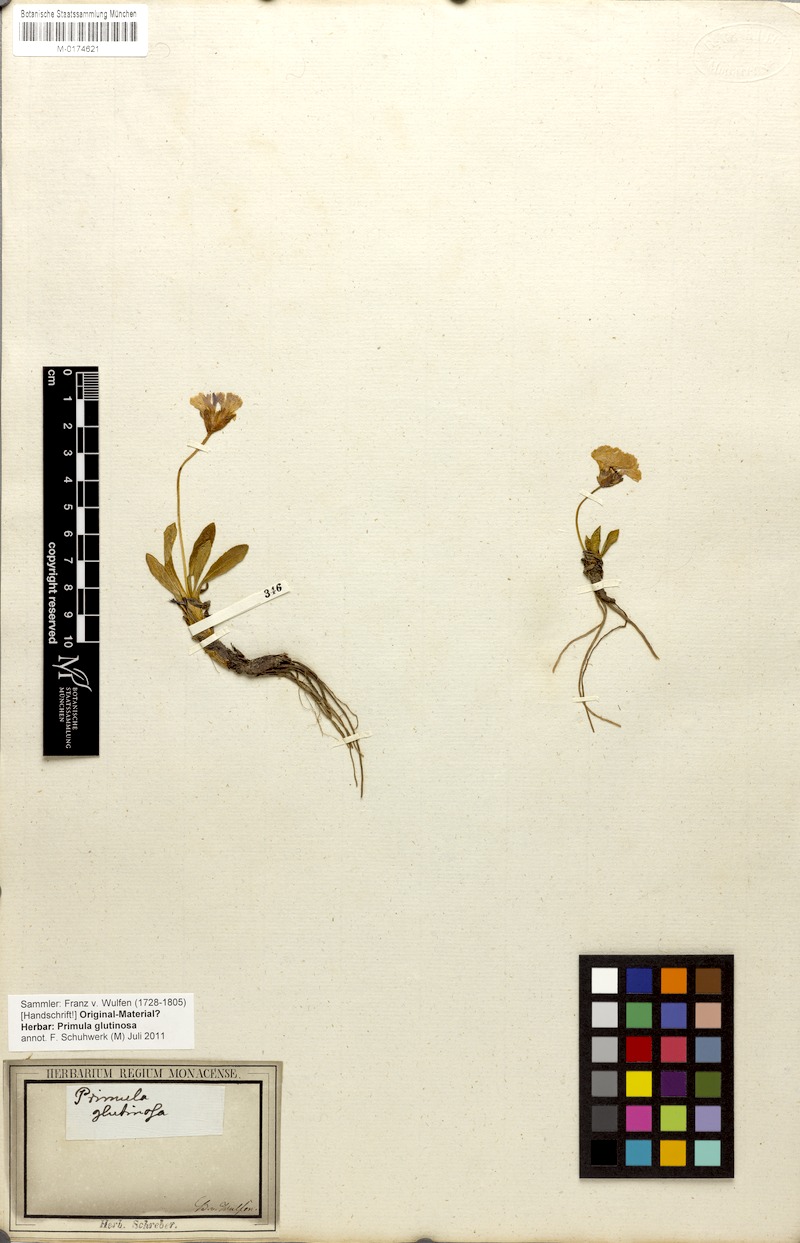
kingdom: Plantae
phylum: Tracheophyta
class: Magnoliopsida
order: Ericales
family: Primulaceae
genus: Primula
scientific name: Primula glutinosa
